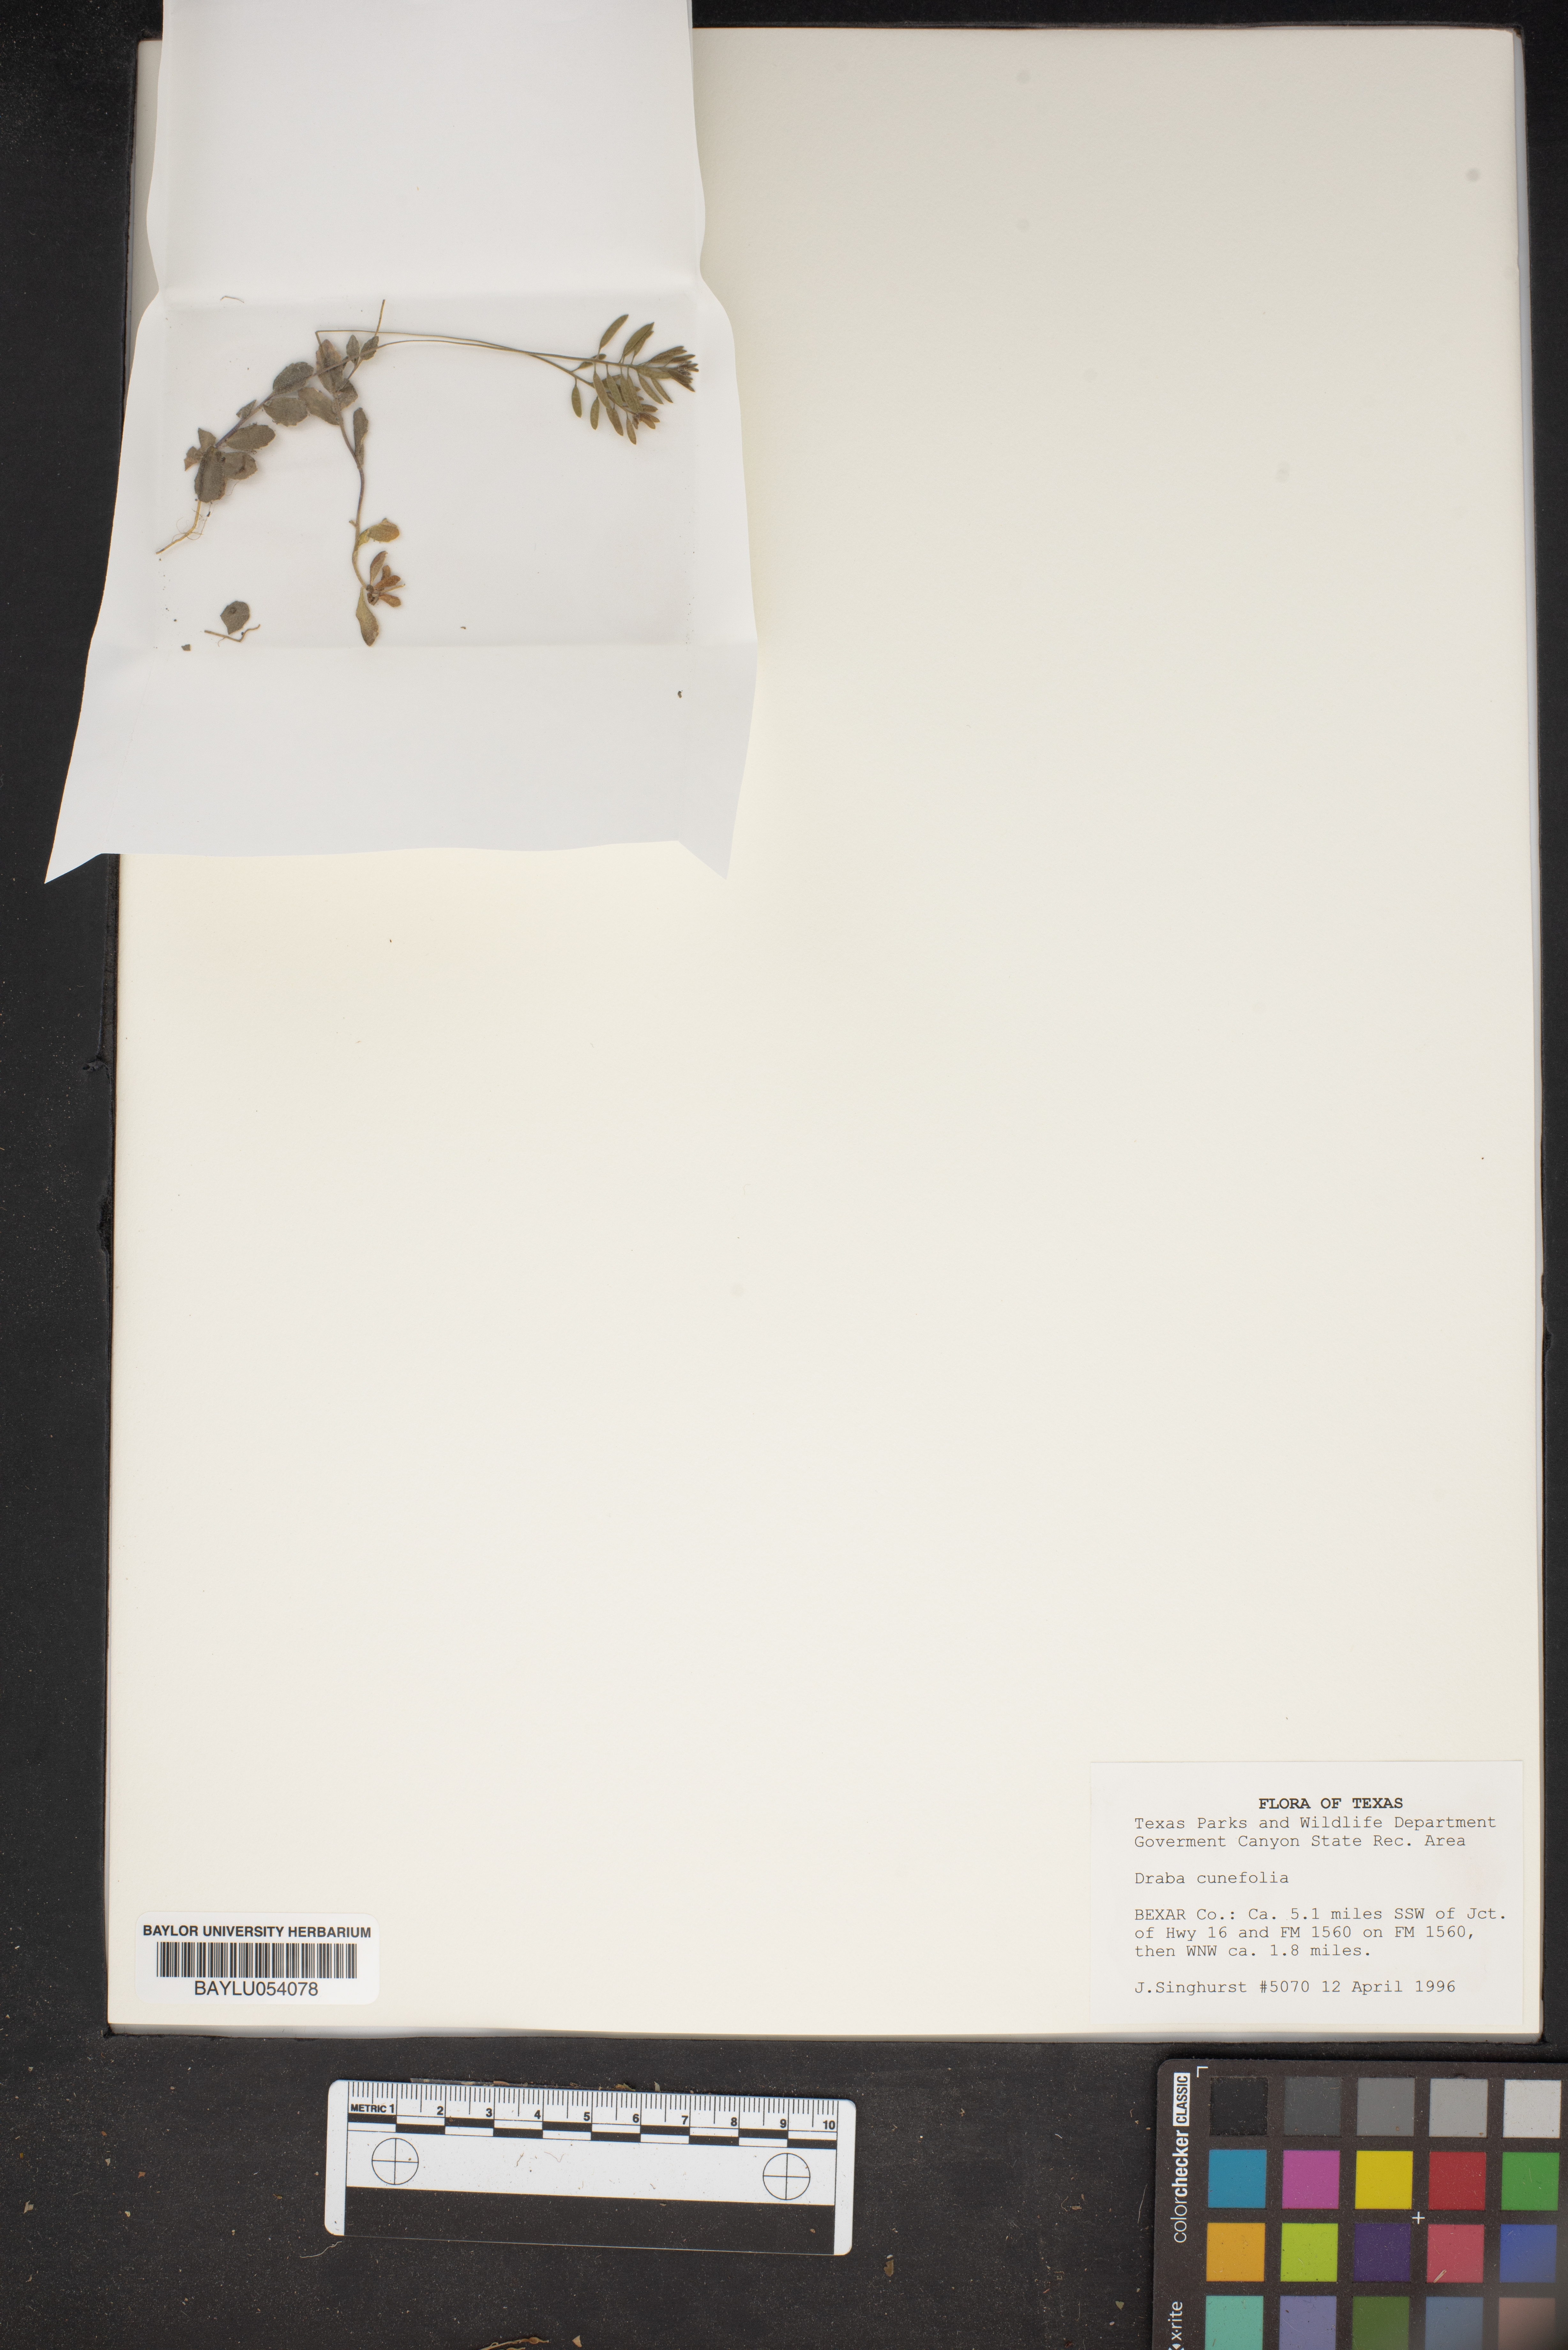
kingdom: Plantae
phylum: Tracheophyta
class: Magnoliopsida
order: Brassicales
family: Brassicaceae
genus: Tomostima
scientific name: Tomostima cuneifolia
